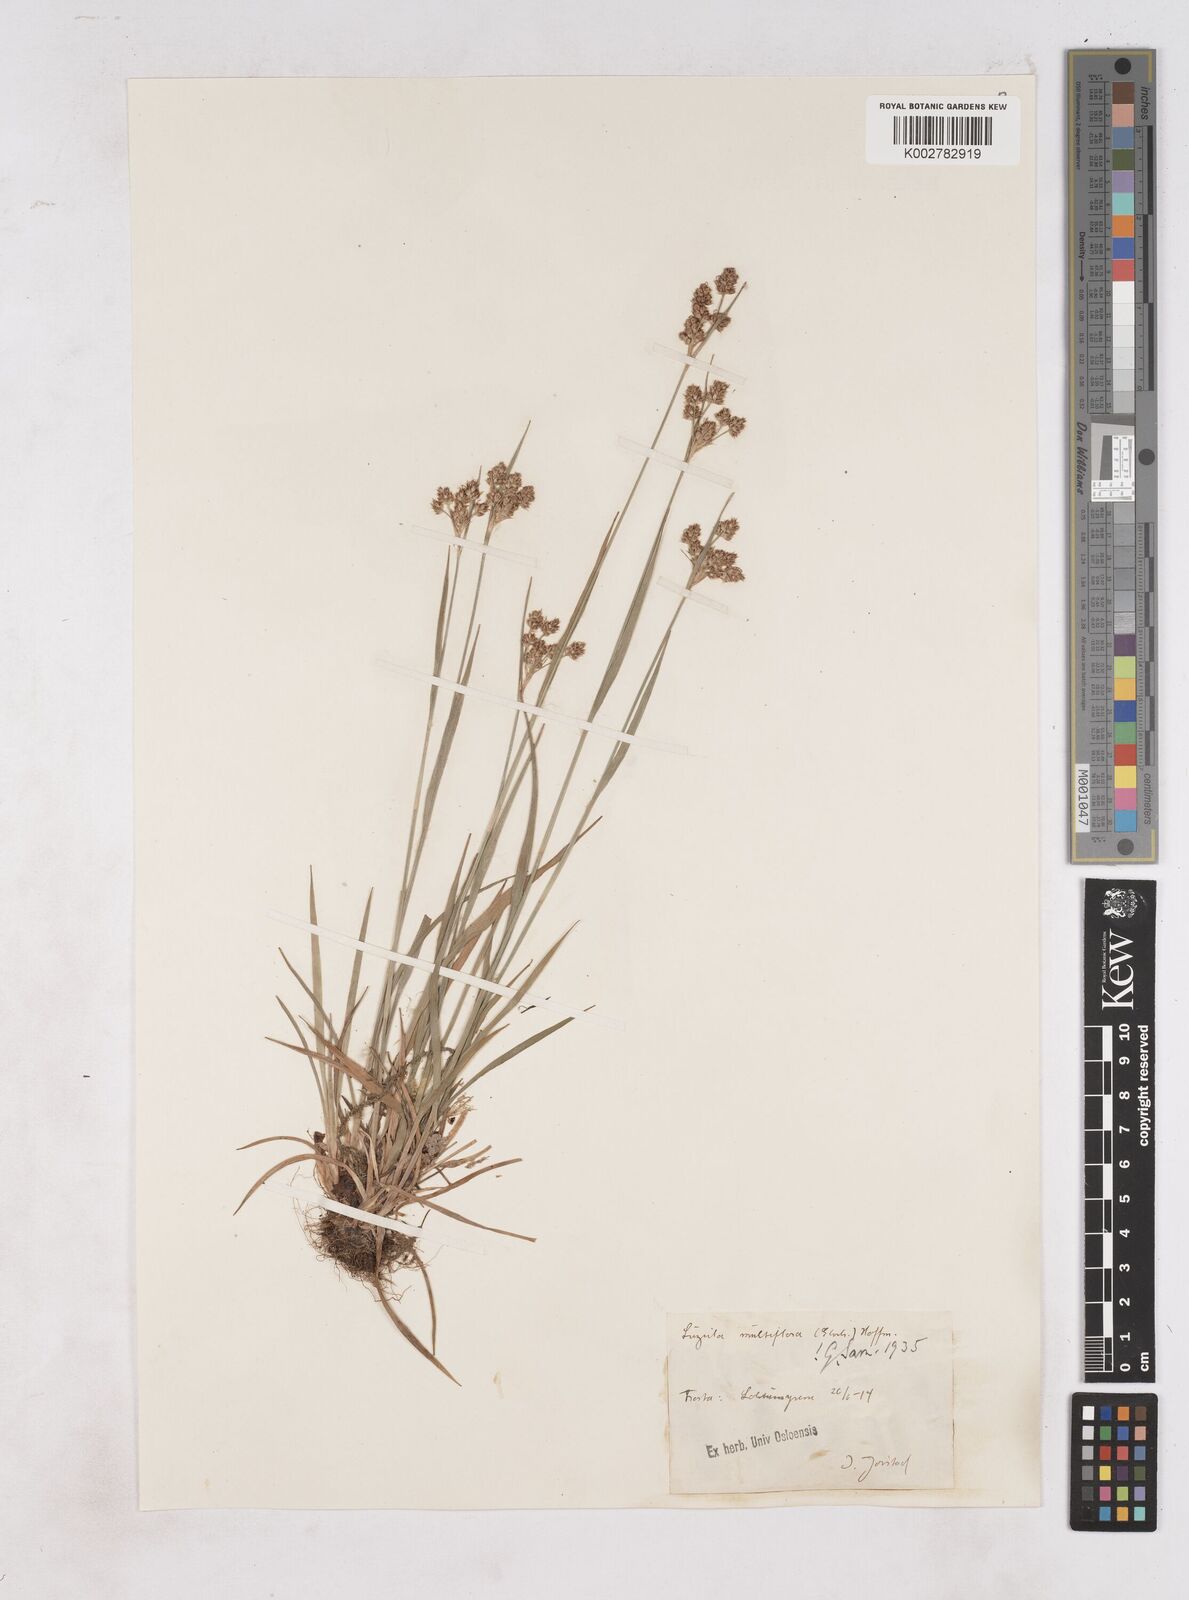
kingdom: Plantae
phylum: Tracheophyta
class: Liliopsida
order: Poales
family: Juncaceae
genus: Luzula
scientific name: Luzula campestris
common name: Field wood-rush
